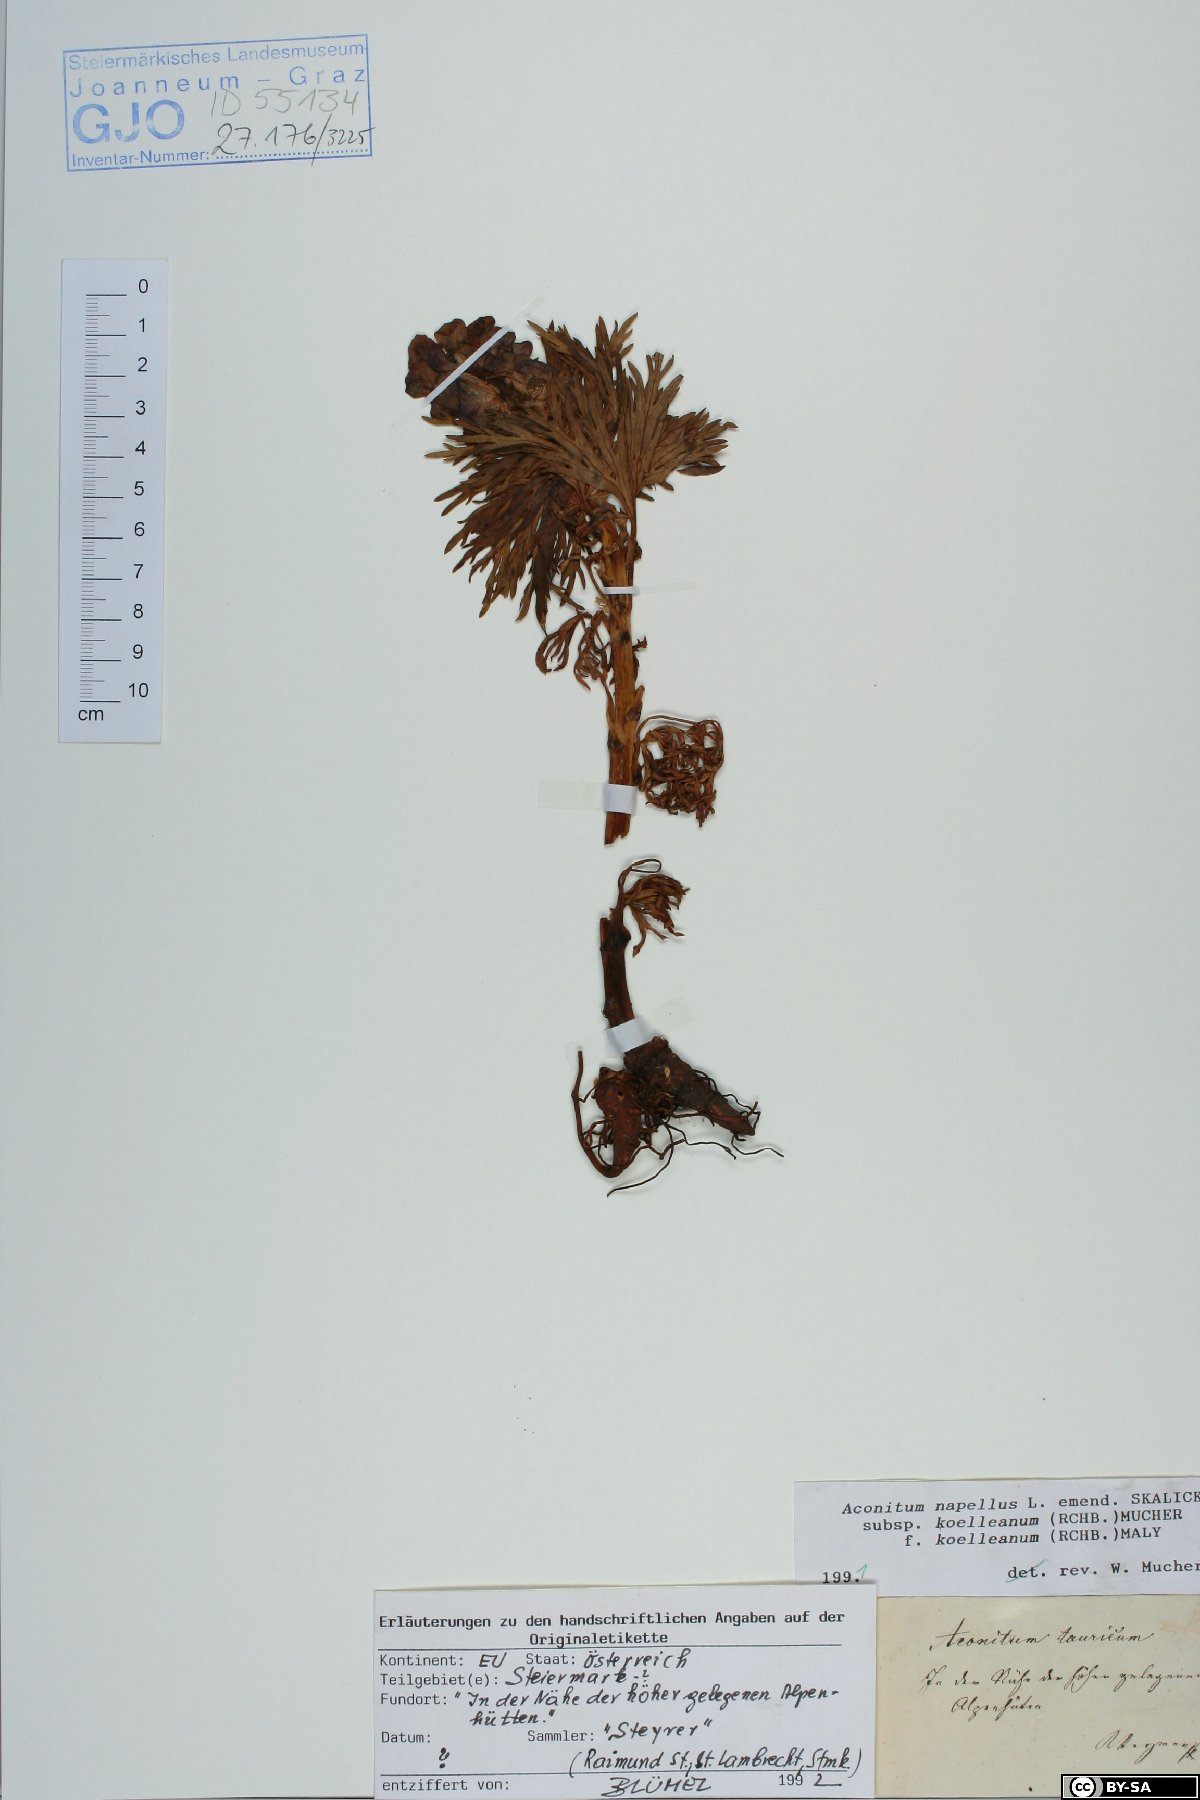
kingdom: Plantae
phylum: Tracheophyta
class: Magnoliopsida
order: Ranunculales
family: Ranunculaceae
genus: Aconitum
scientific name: Aconitum tauricum
